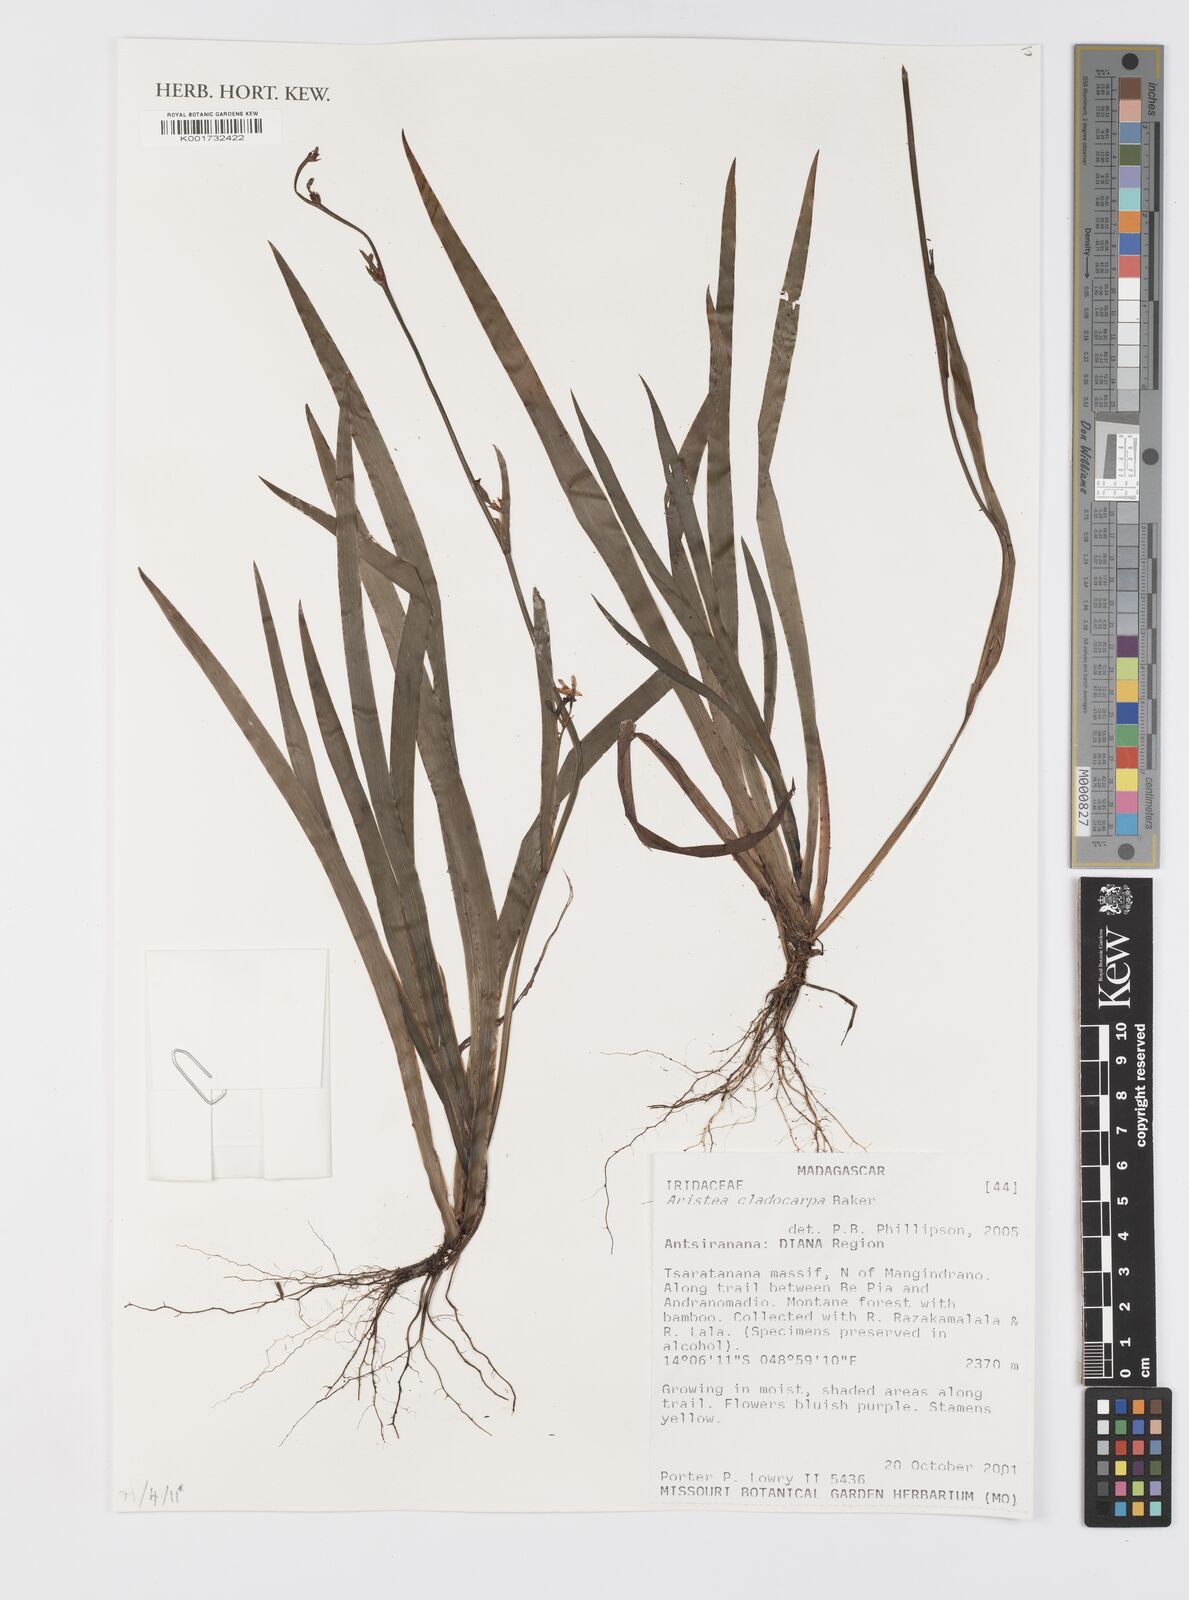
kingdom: Plantae
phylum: Tracheophyta
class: Liliopsida
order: Asparagales
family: Iridaceae
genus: Aristea
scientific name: Aristea cladocarpa
